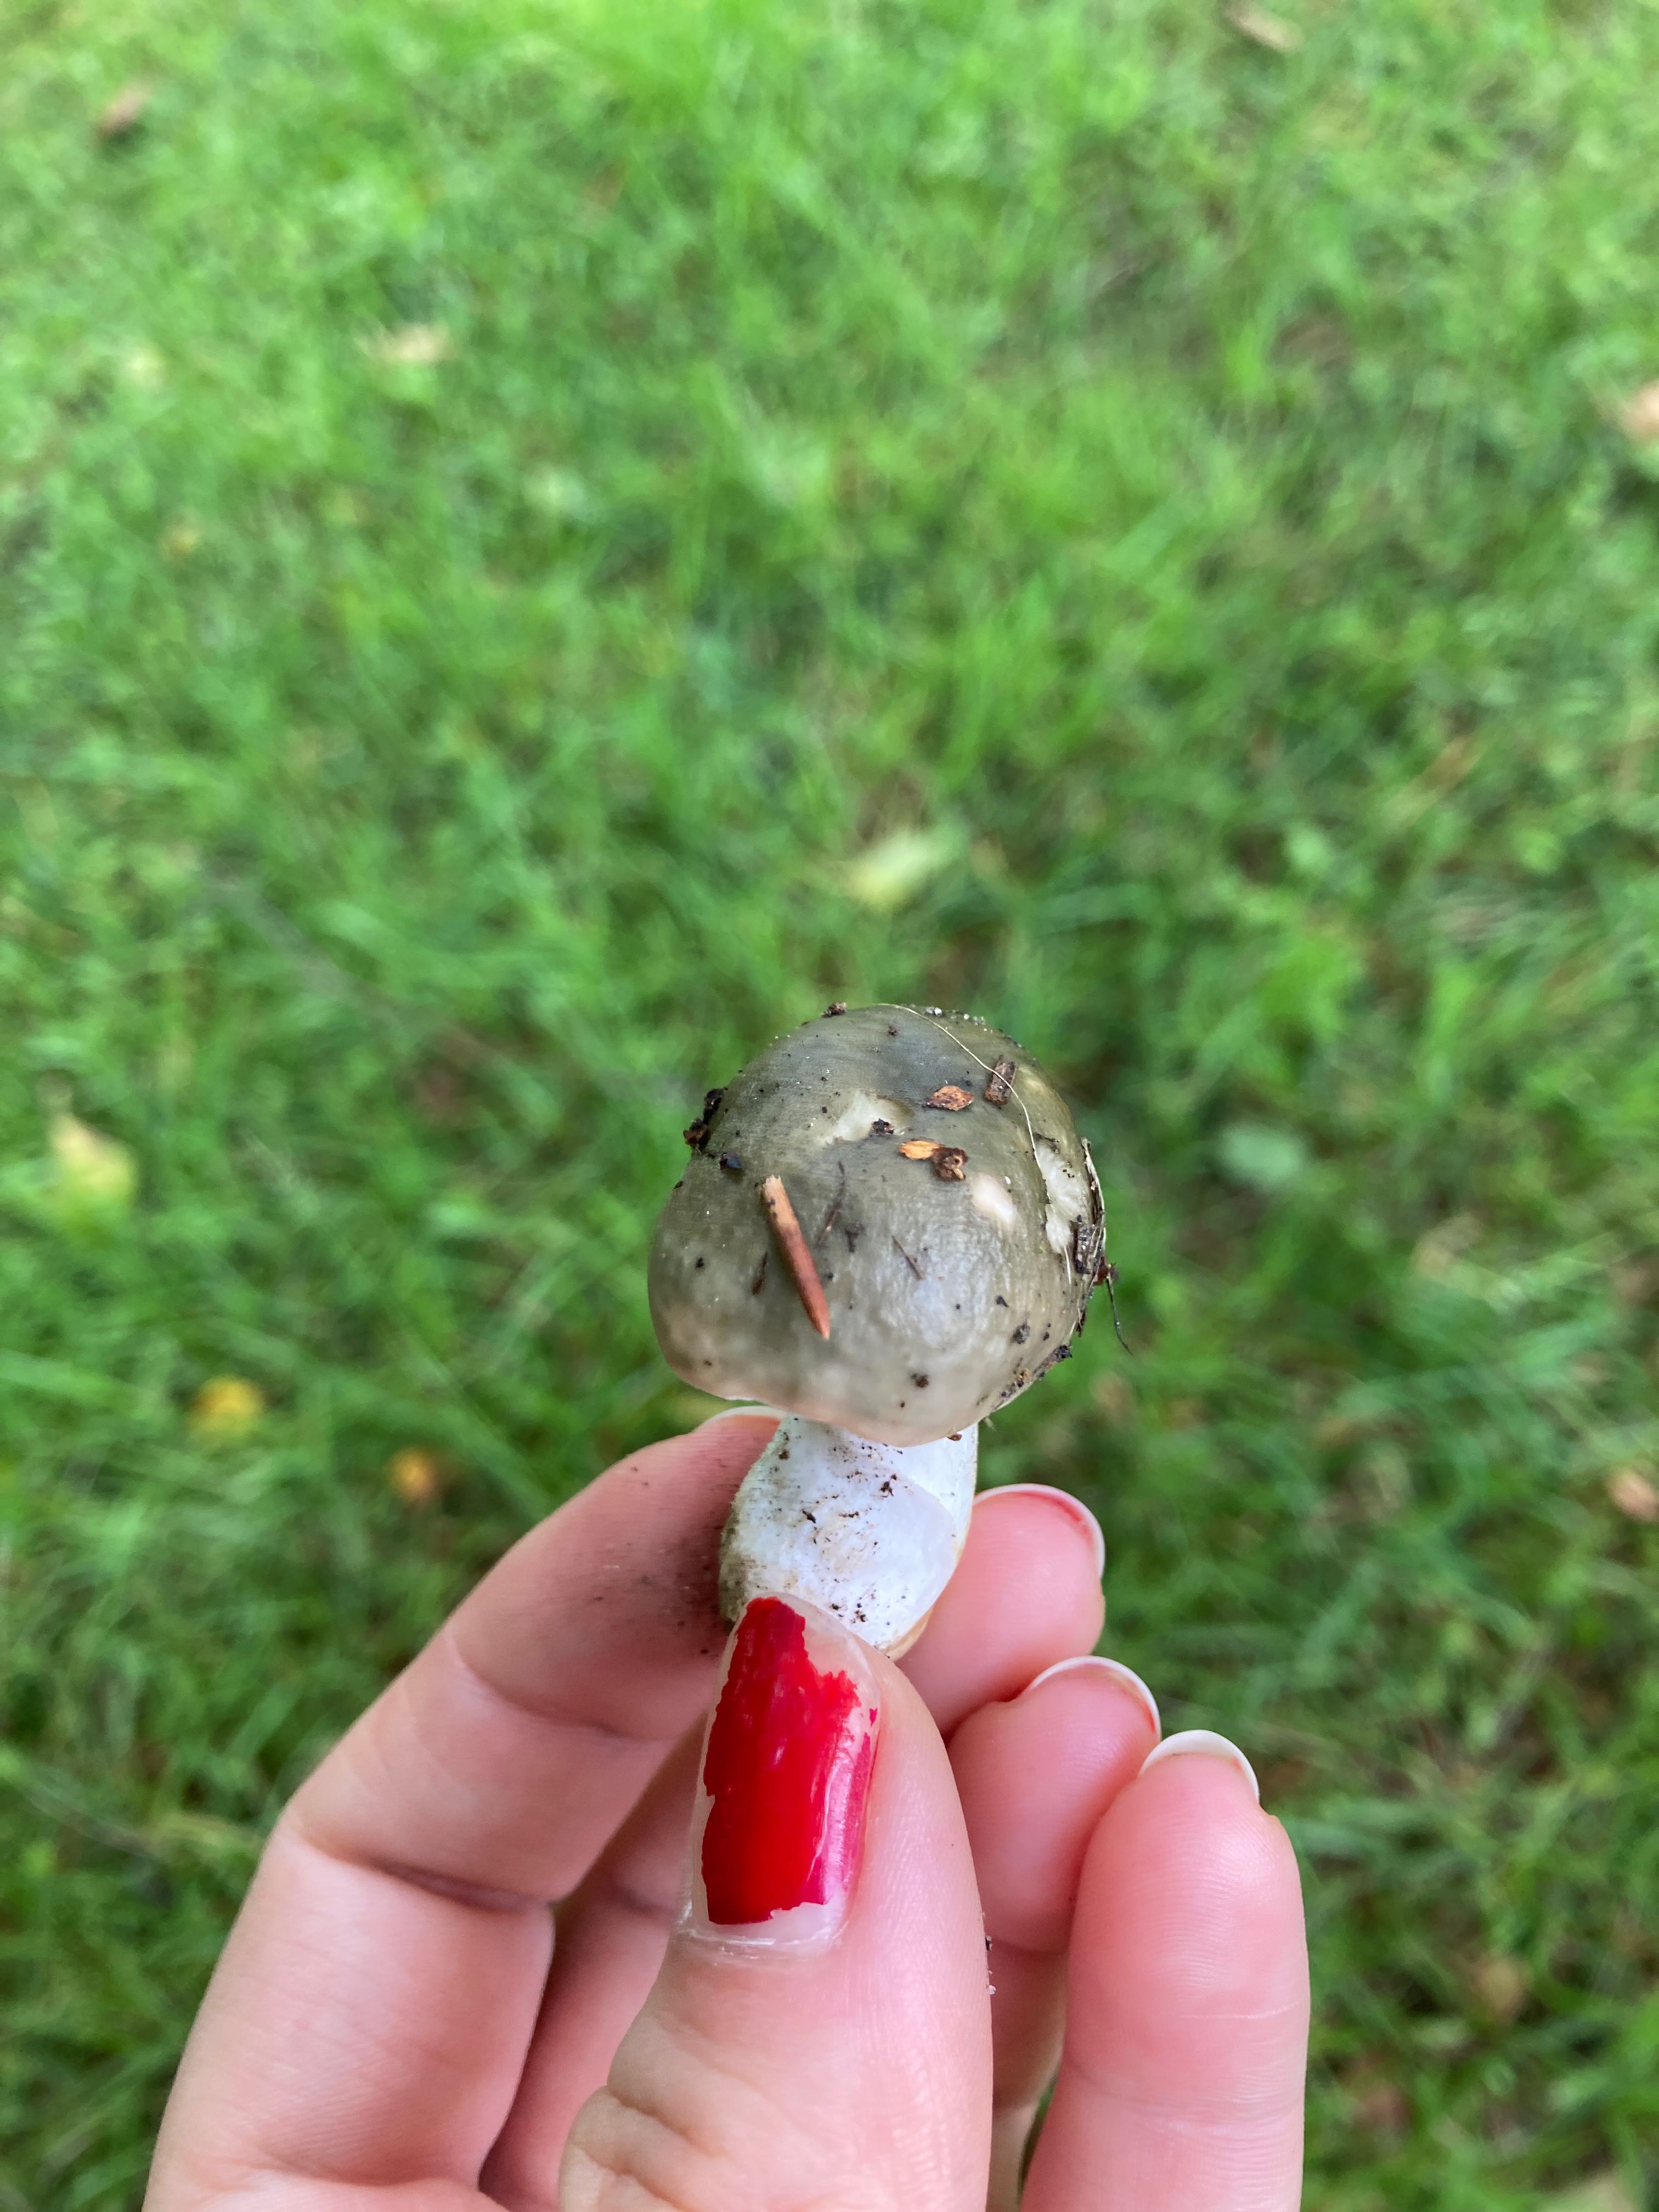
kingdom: Fungi
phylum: Basidiomycota
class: Agaricomycetes
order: Russulales
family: Russulaceae
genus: Russula
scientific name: Russula aeruginea
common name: græsgrøn skørhat
